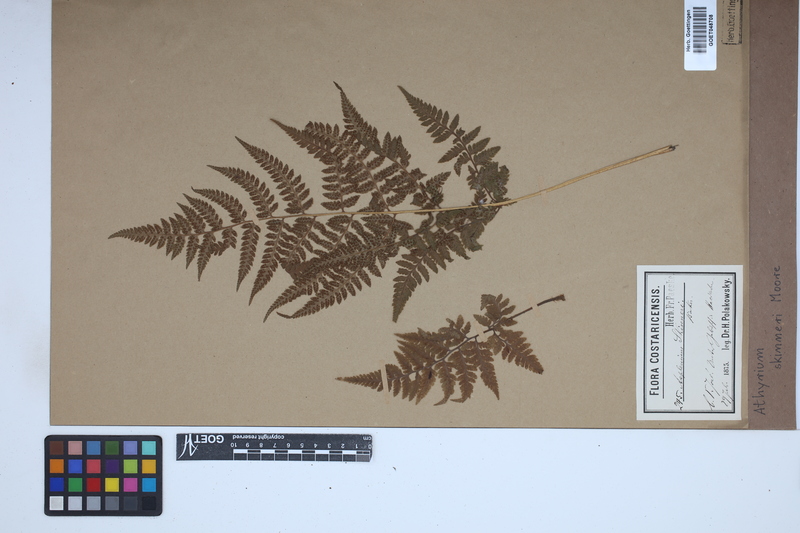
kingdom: Plantae
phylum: Tracheophyta
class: Polypodiopsida
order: Polypodiales
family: Athyriaceae
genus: Athyrium
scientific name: Athyrium skinneri
